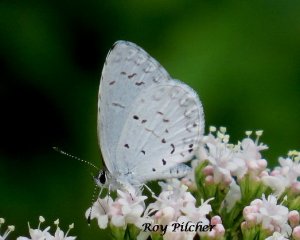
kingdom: Animalia
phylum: Arthropoda
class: Insecta
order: Lepidoptera
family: Lycaenidae
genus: Cyaniris
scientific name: Cyaniris neglecta
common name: Summer Azure
